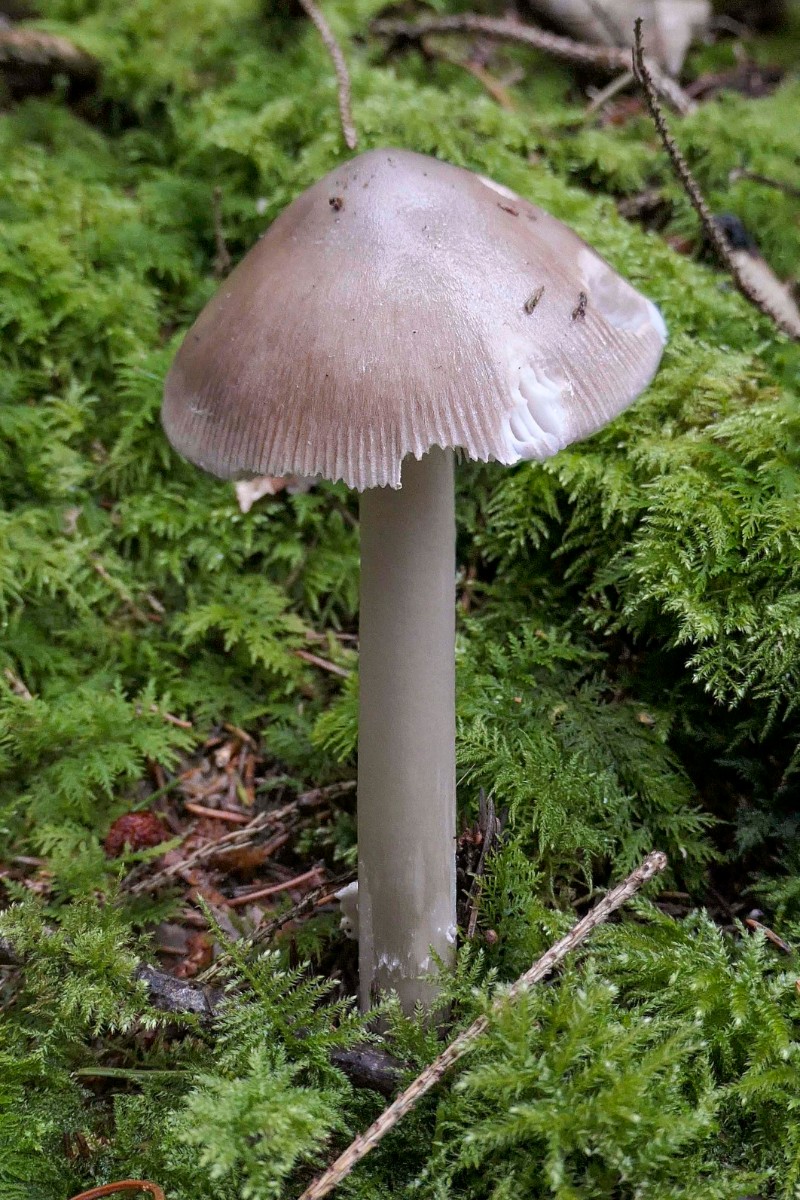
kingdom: Fungi
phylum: Basidiomycota
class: Agaricomycetes
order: Agaricales
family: Amanitaceae
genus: Amanita
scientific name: Amanita vaginata
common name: grå kam-fluesvamp
